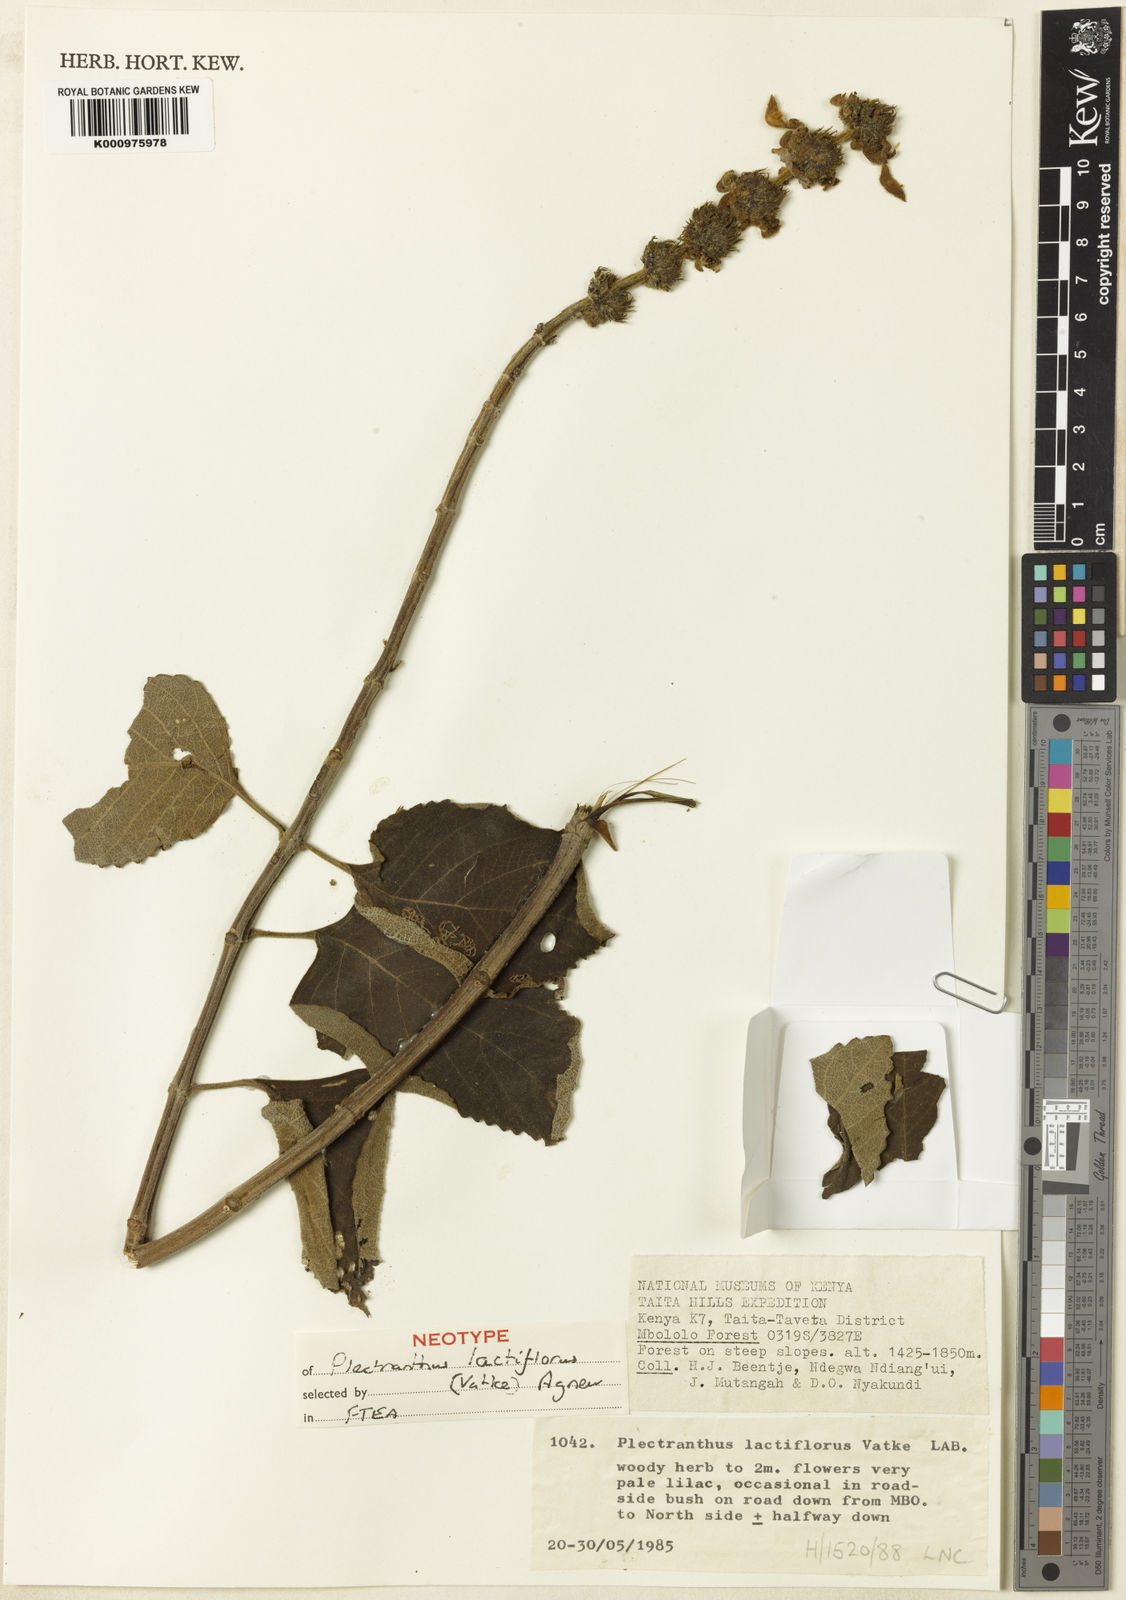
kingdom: Plantae
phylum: Tracheophyta
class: Magnoliopsida
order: Lamiales
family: Lamiaceae
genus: Coleus
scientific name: Coleus lactiflorus
